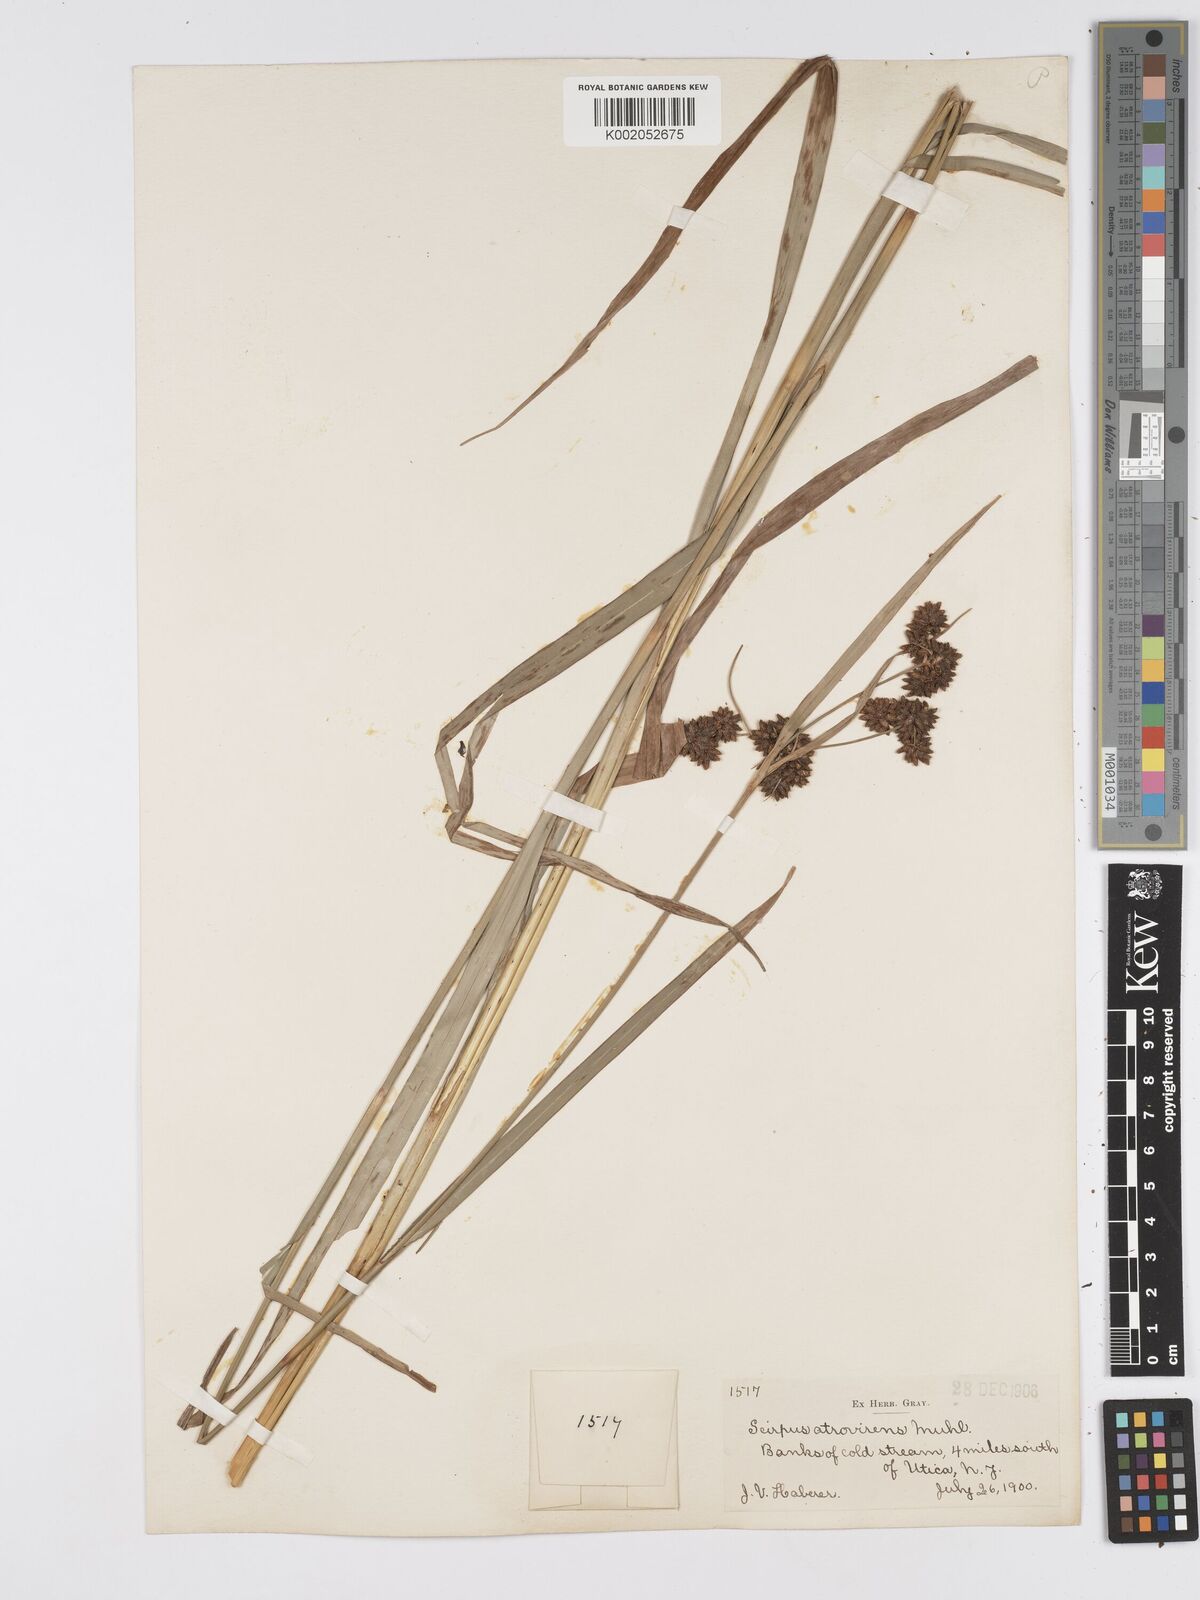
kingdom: Plantae
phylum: Tracheophyta
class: Liliopsida
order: Poales
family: Cyperaceae
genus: Scirpus
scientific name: Scirpus atrovirens
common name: Black bulrush
